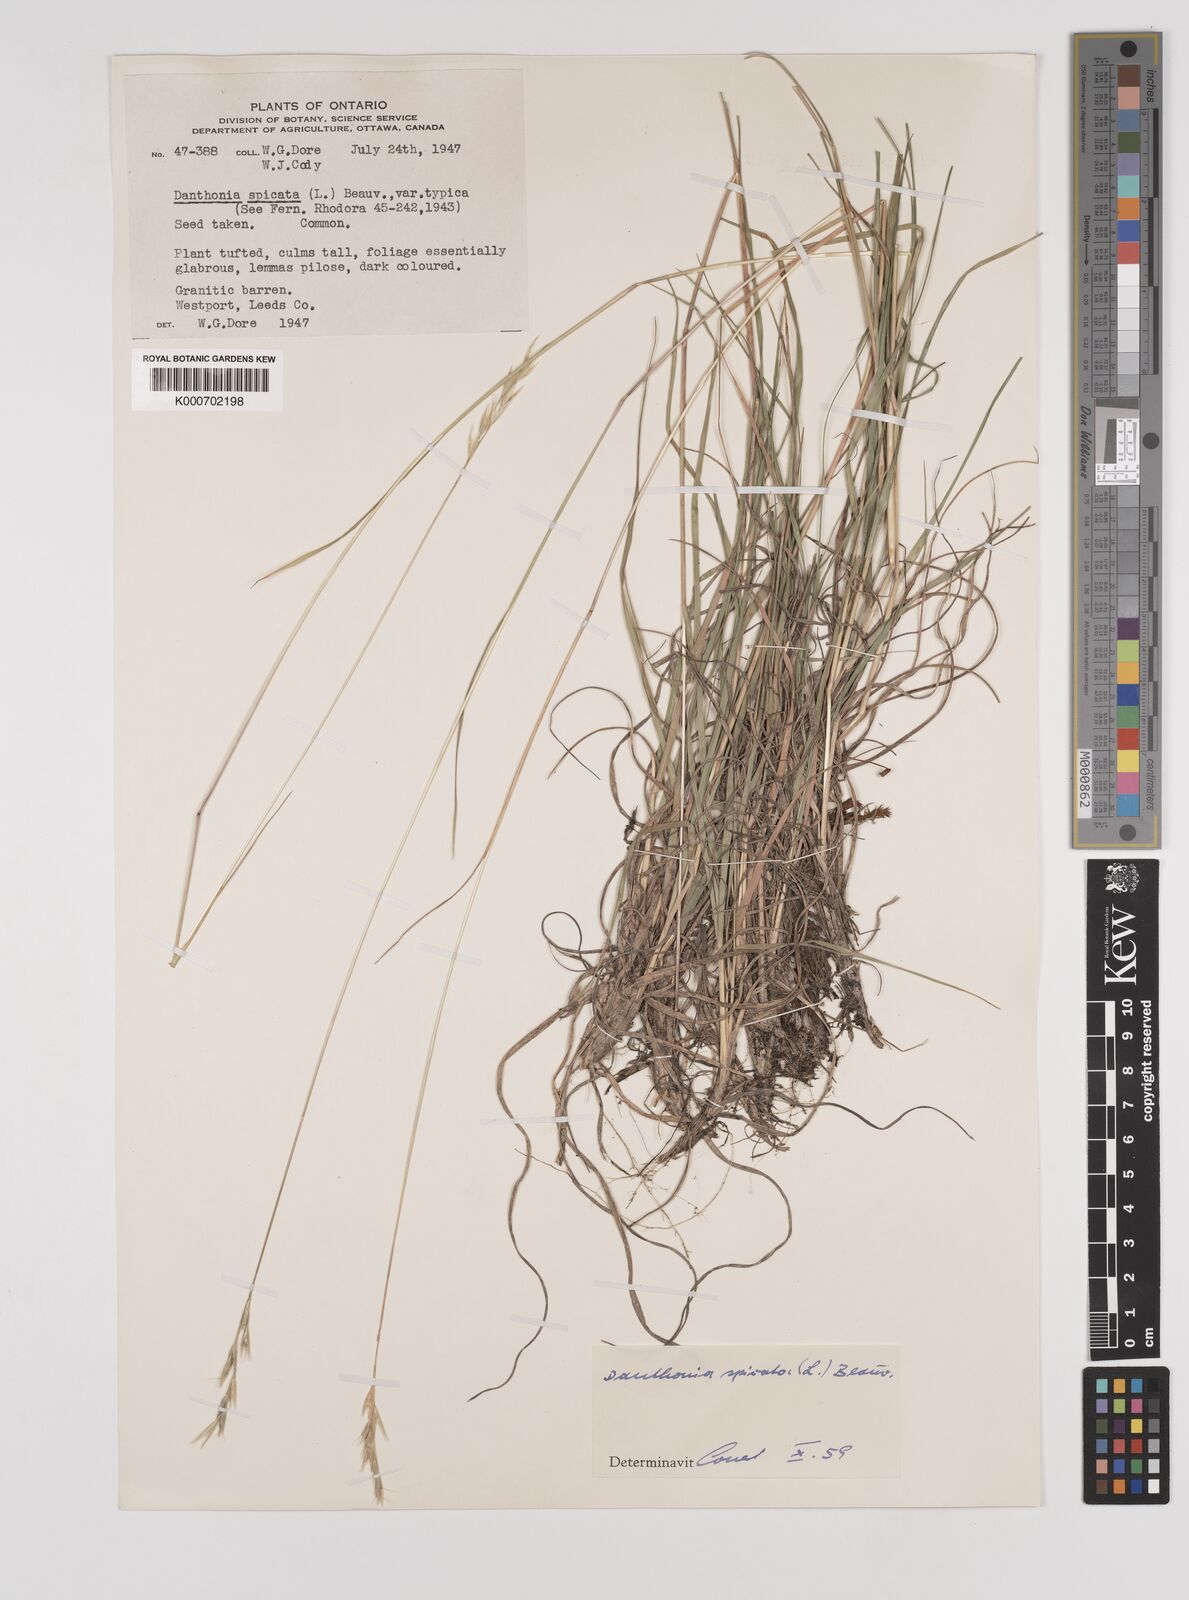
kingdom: Plantae
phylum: Tracheophyta
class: Liliopsida
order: Poales
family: Poaceae
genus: Danthonia
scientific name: Danthonia spicata
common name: Common wild oatgrass
